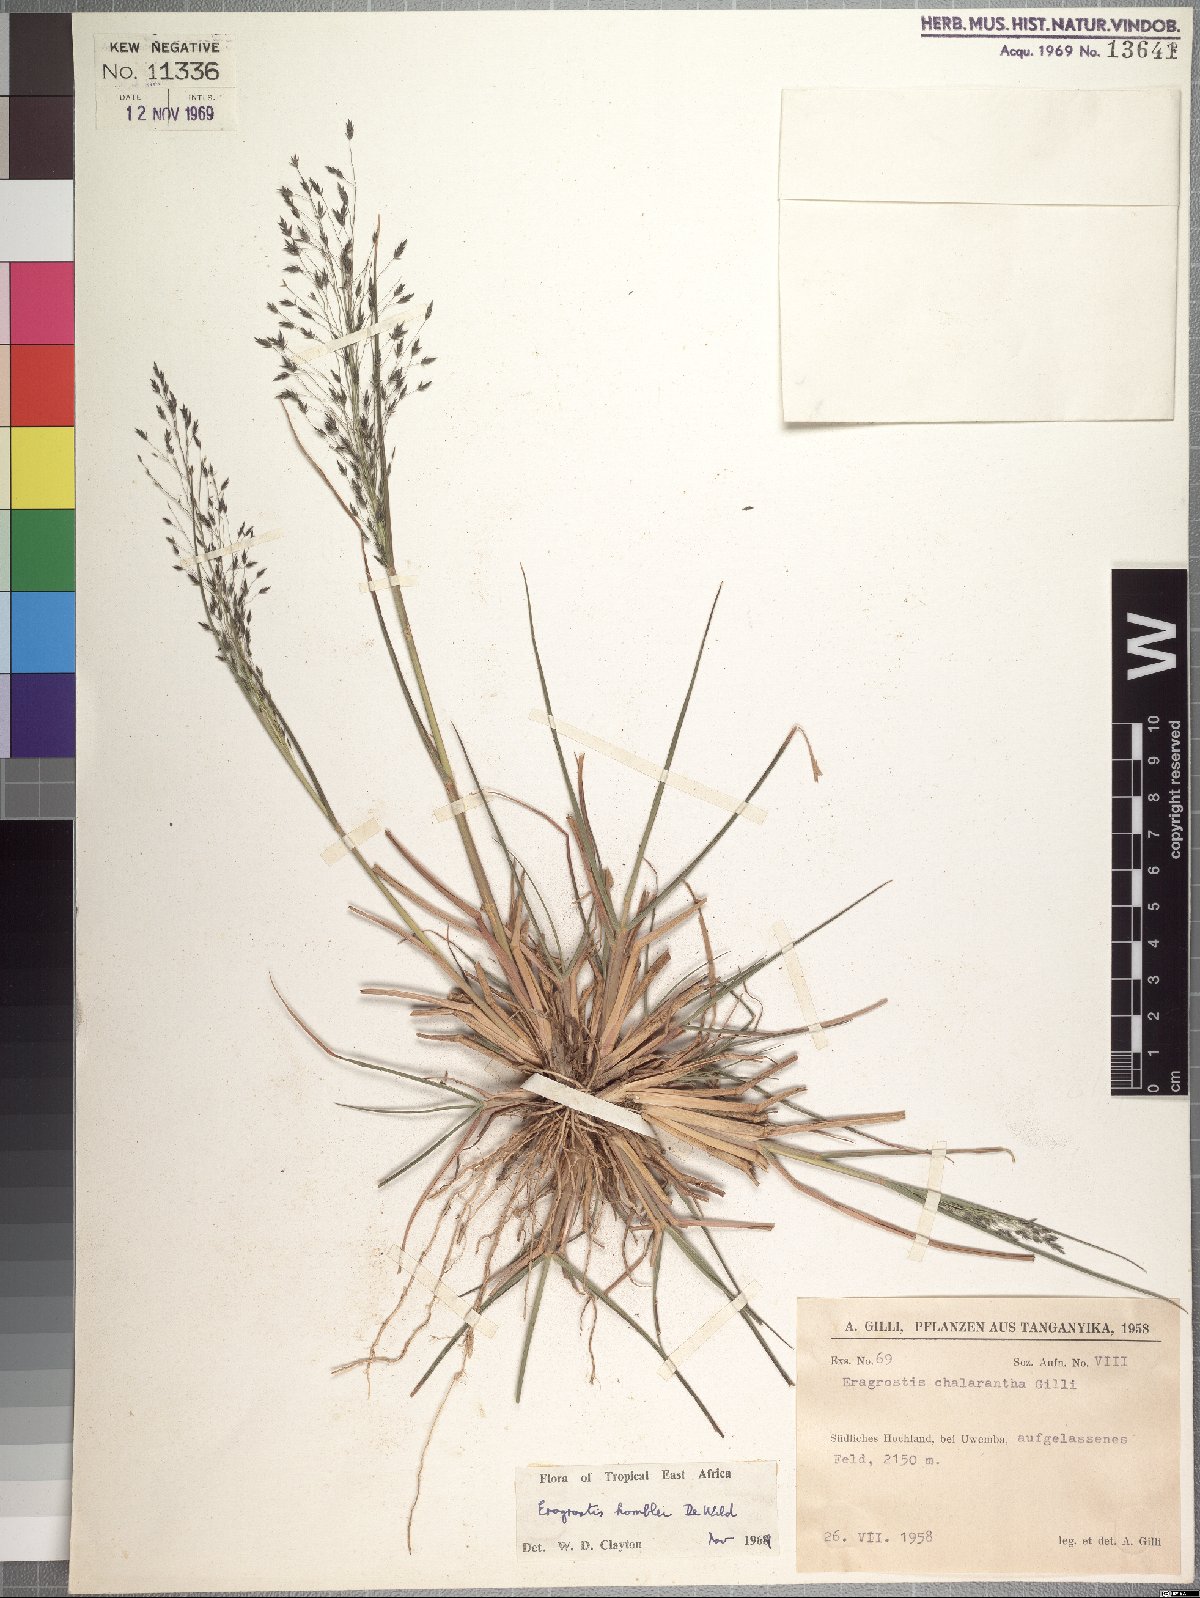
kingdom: Plantae
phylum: Tracheophyta
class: Liliopsida
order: Poales
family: Poaceae
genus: Eragrostis
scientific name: Eragrostis homblei
